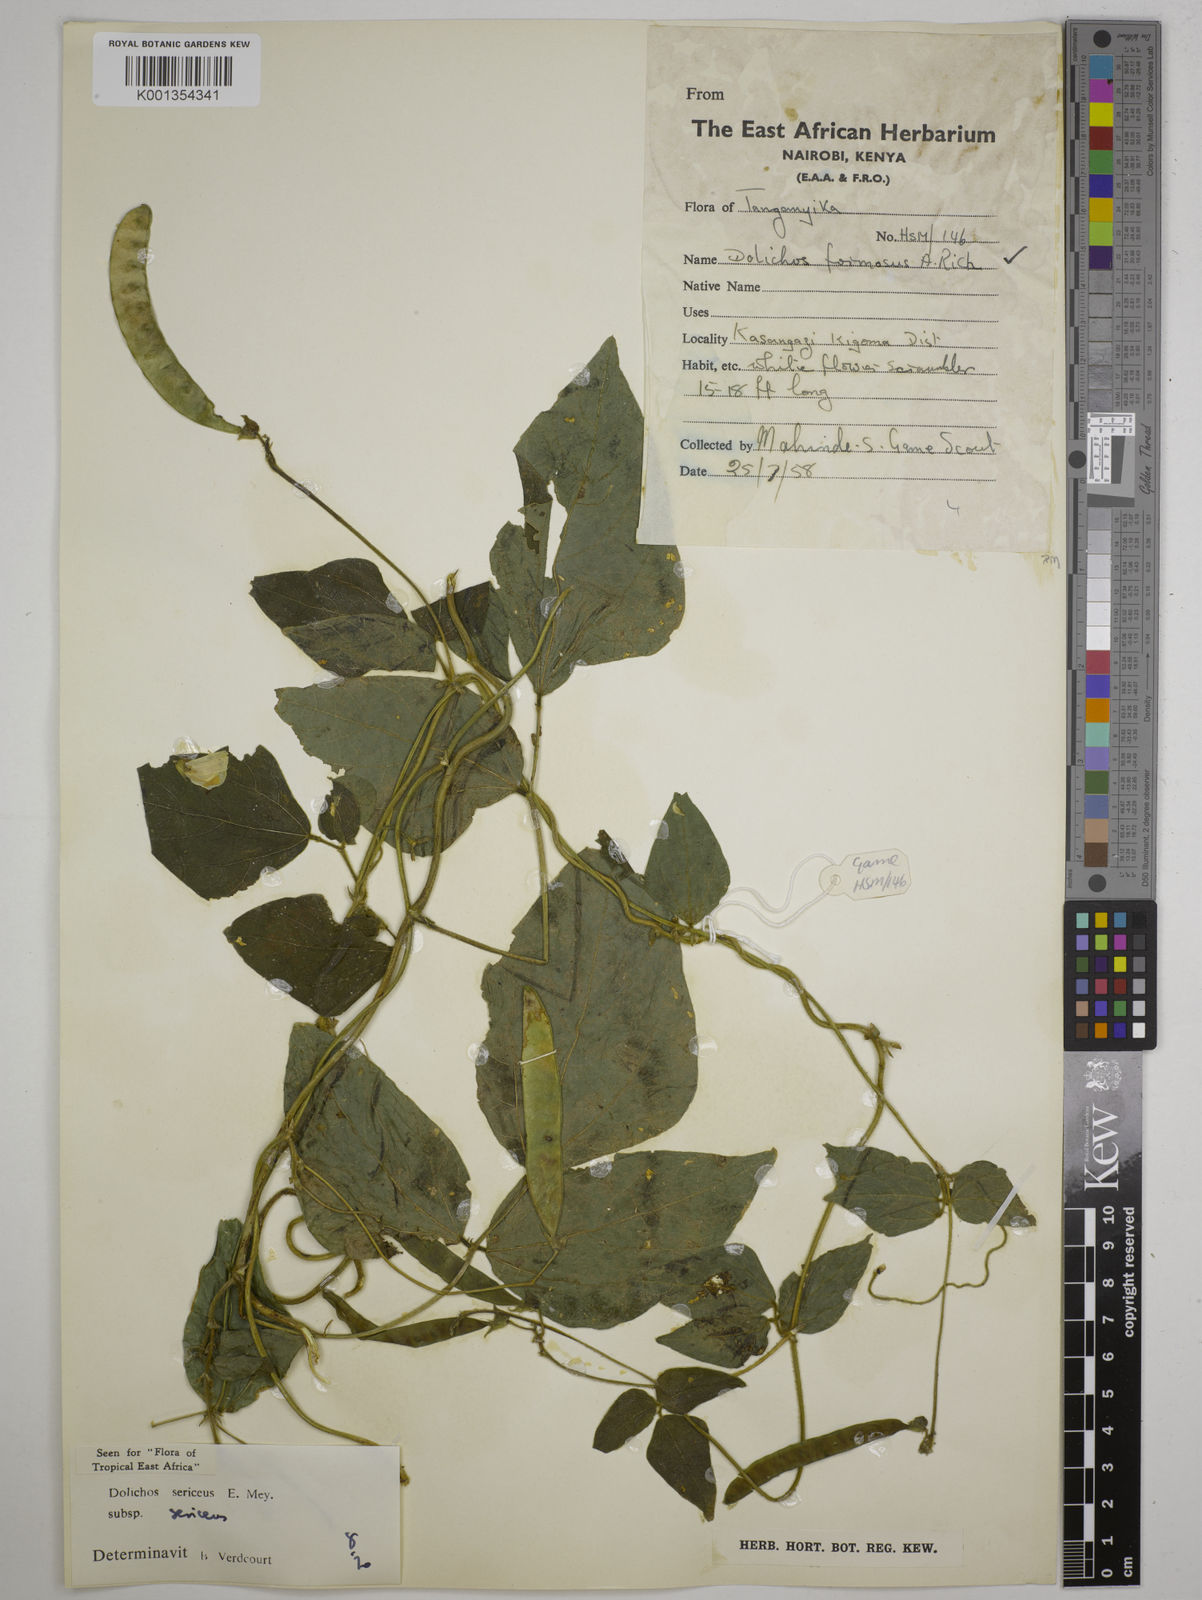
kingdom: Plantae
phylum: Tracheophyta
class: Magnoliopsida
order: Fabales
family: Fabaceae
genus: Dolichos
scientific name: Dolichos
